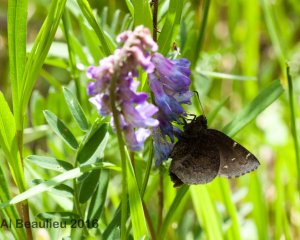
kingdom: Animalia
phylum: Arthropoda
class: Insecta
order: Lepidoptera
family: Hesperiidae
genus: Autochton
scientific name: Autochton
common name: Northern Cloudywing
